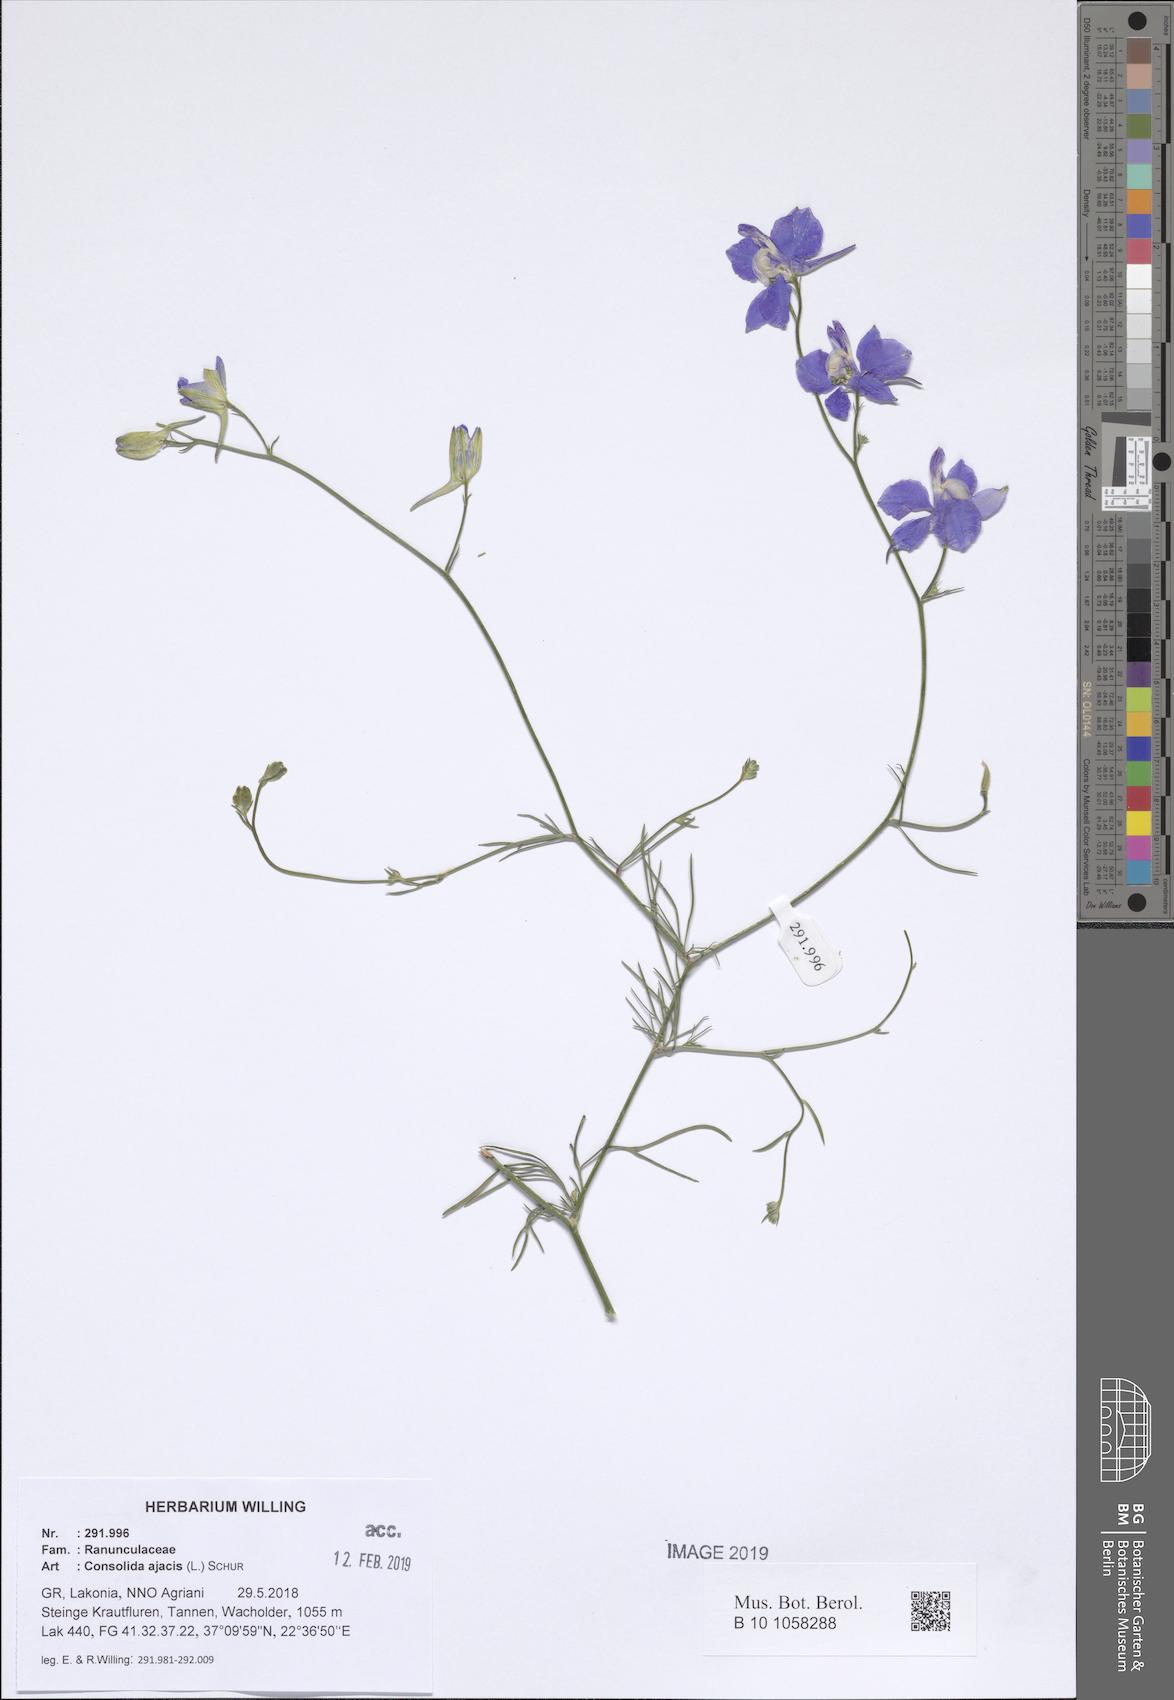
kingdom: Plantae
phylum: Tracheophyta
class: Magnoliopsida
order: Ranunculales
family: Ranunculaceae
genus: Delphinium
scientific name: Delphinium ajacis
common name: Doubtful knight's-spur
